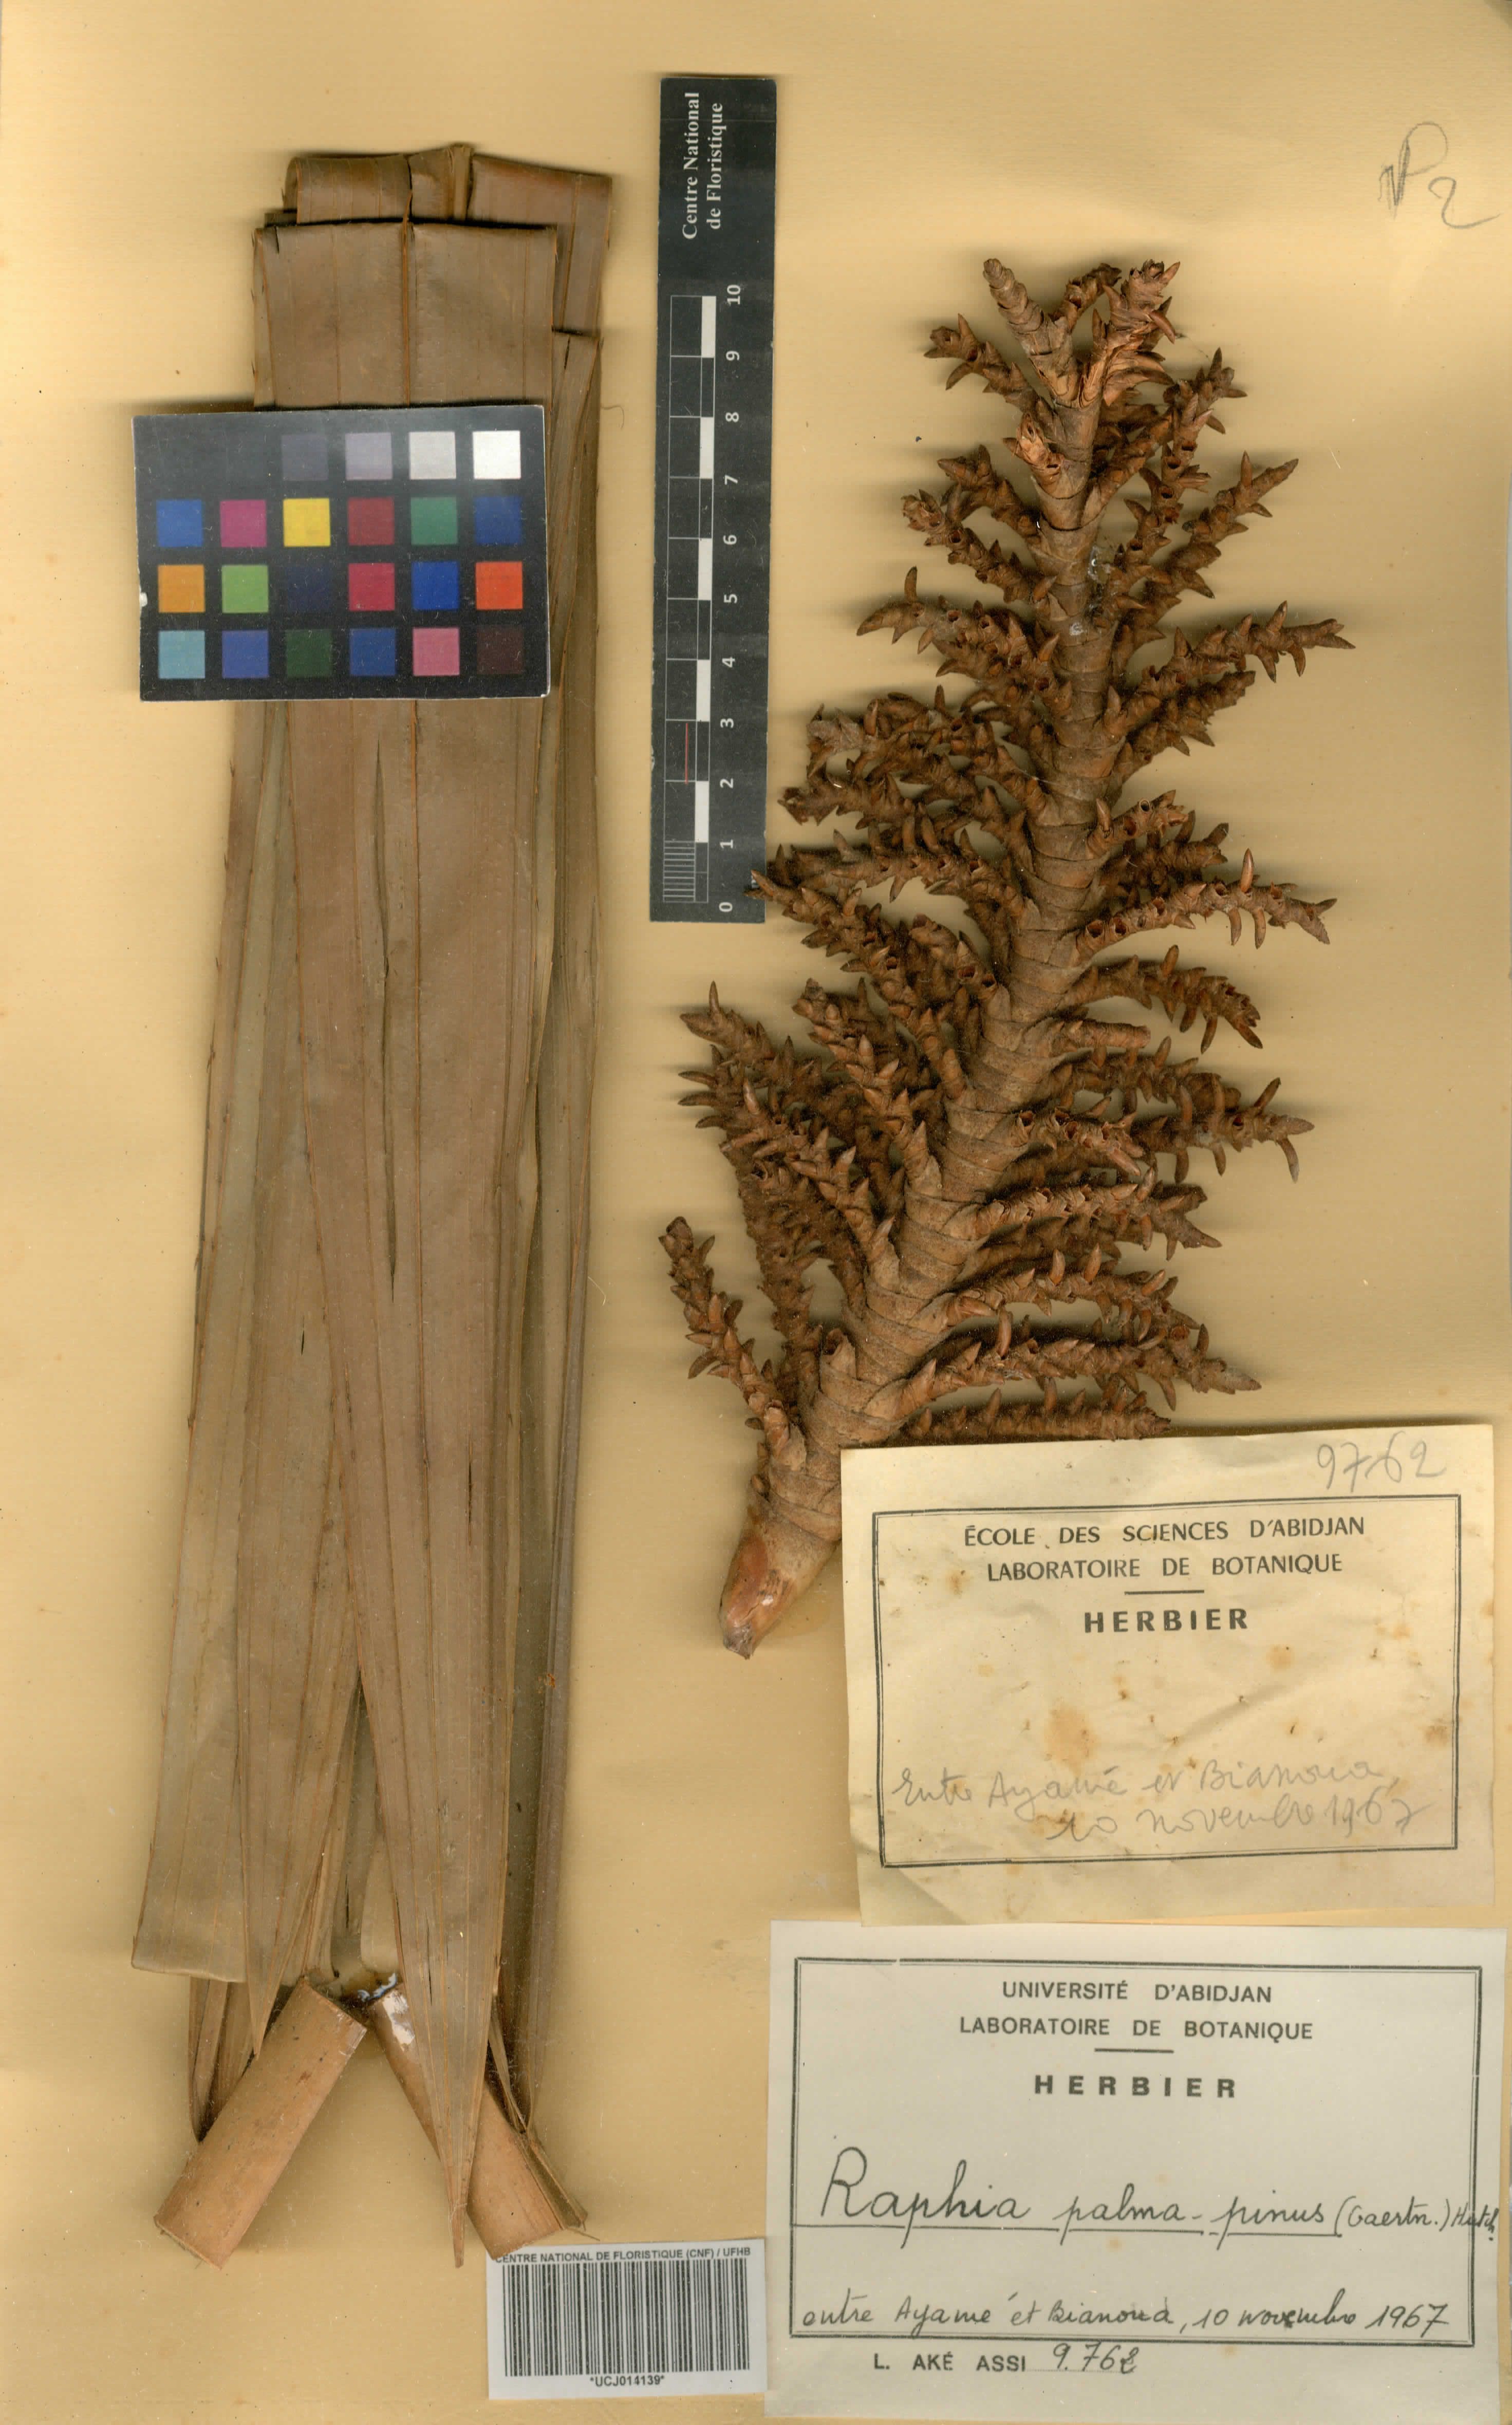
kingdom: Plantae
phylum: Tracheophyta
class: Liliopsida
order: Arecales
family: Arecaceae
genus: Raphia
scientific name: Raphia palma-pinus
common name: Raphia palm
